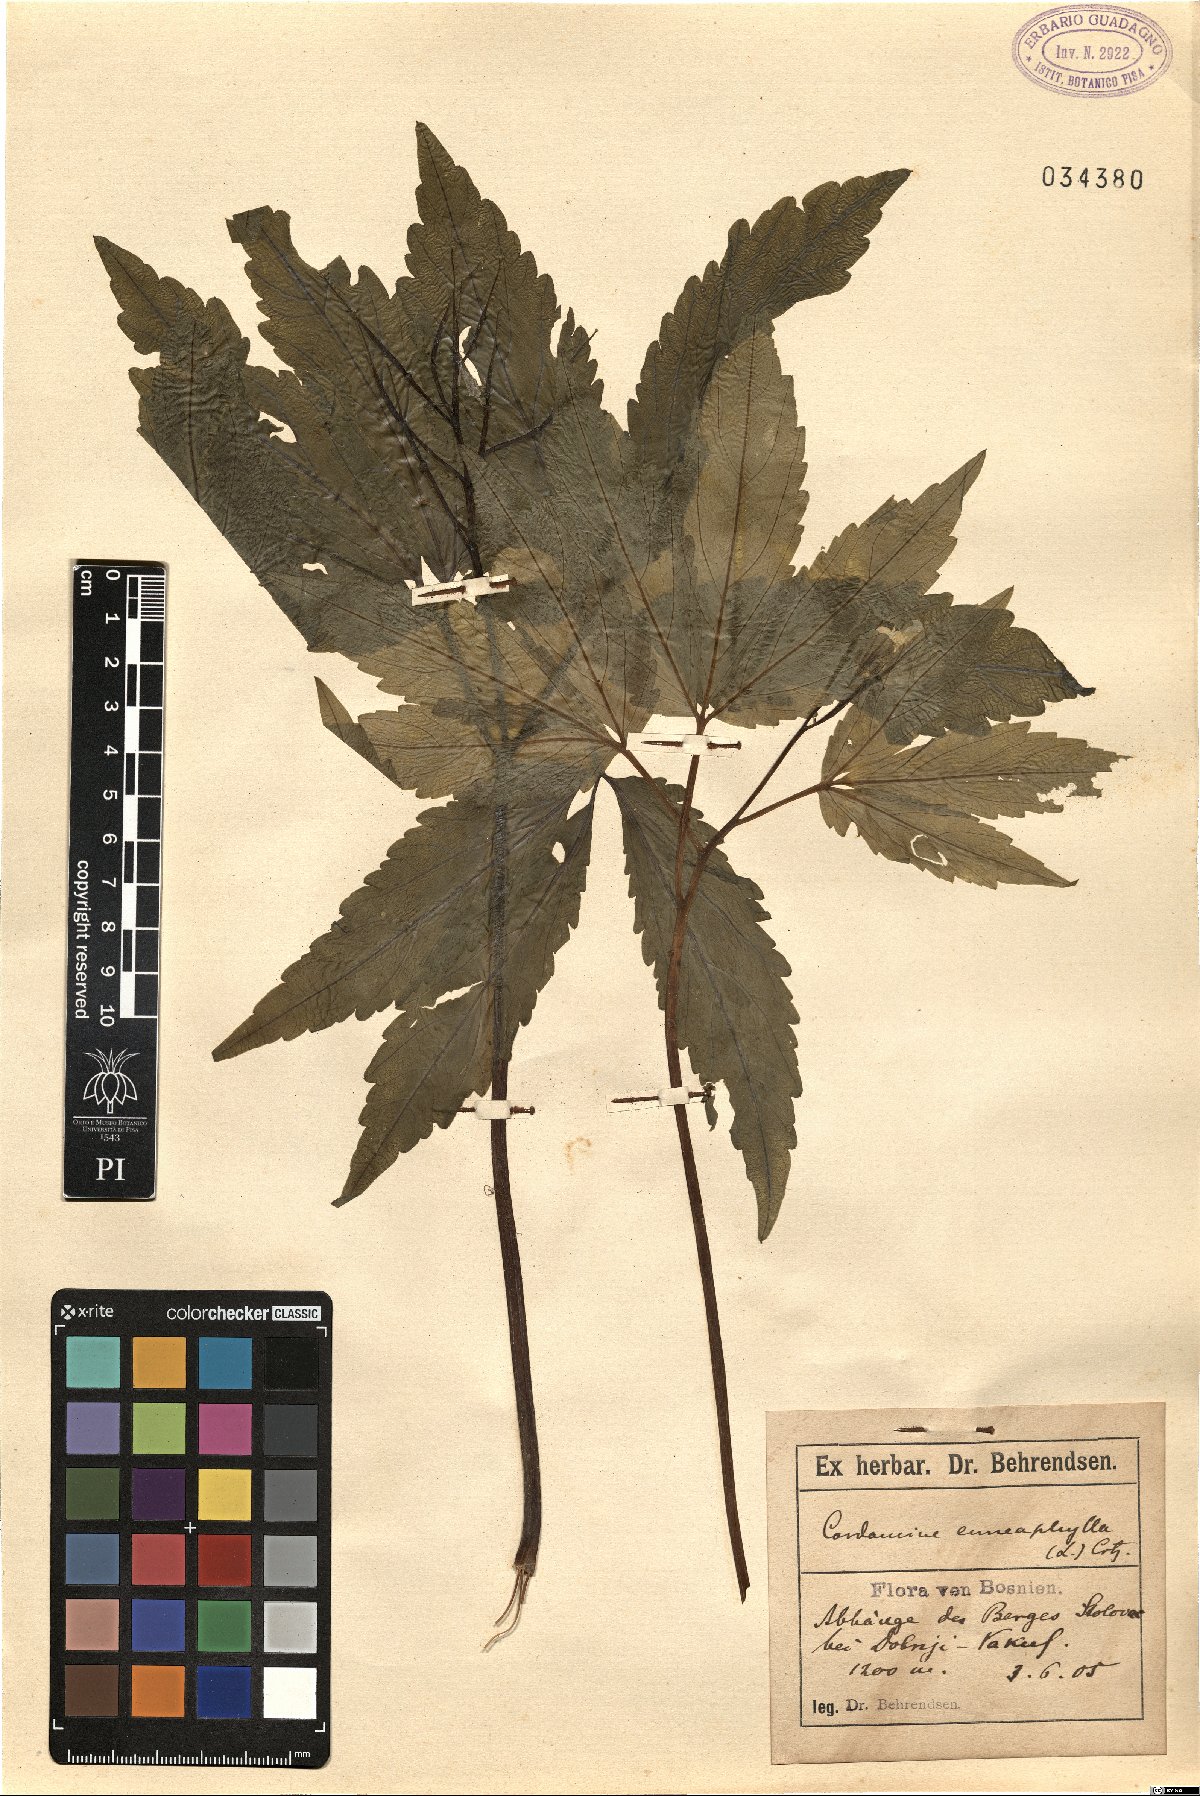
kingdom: Plantae
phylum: Tracheophyta
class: Magnoliopsida
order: Brassicales
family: Brassicaceae
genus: Cardamine
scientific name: Cardamine enneaphyllos
